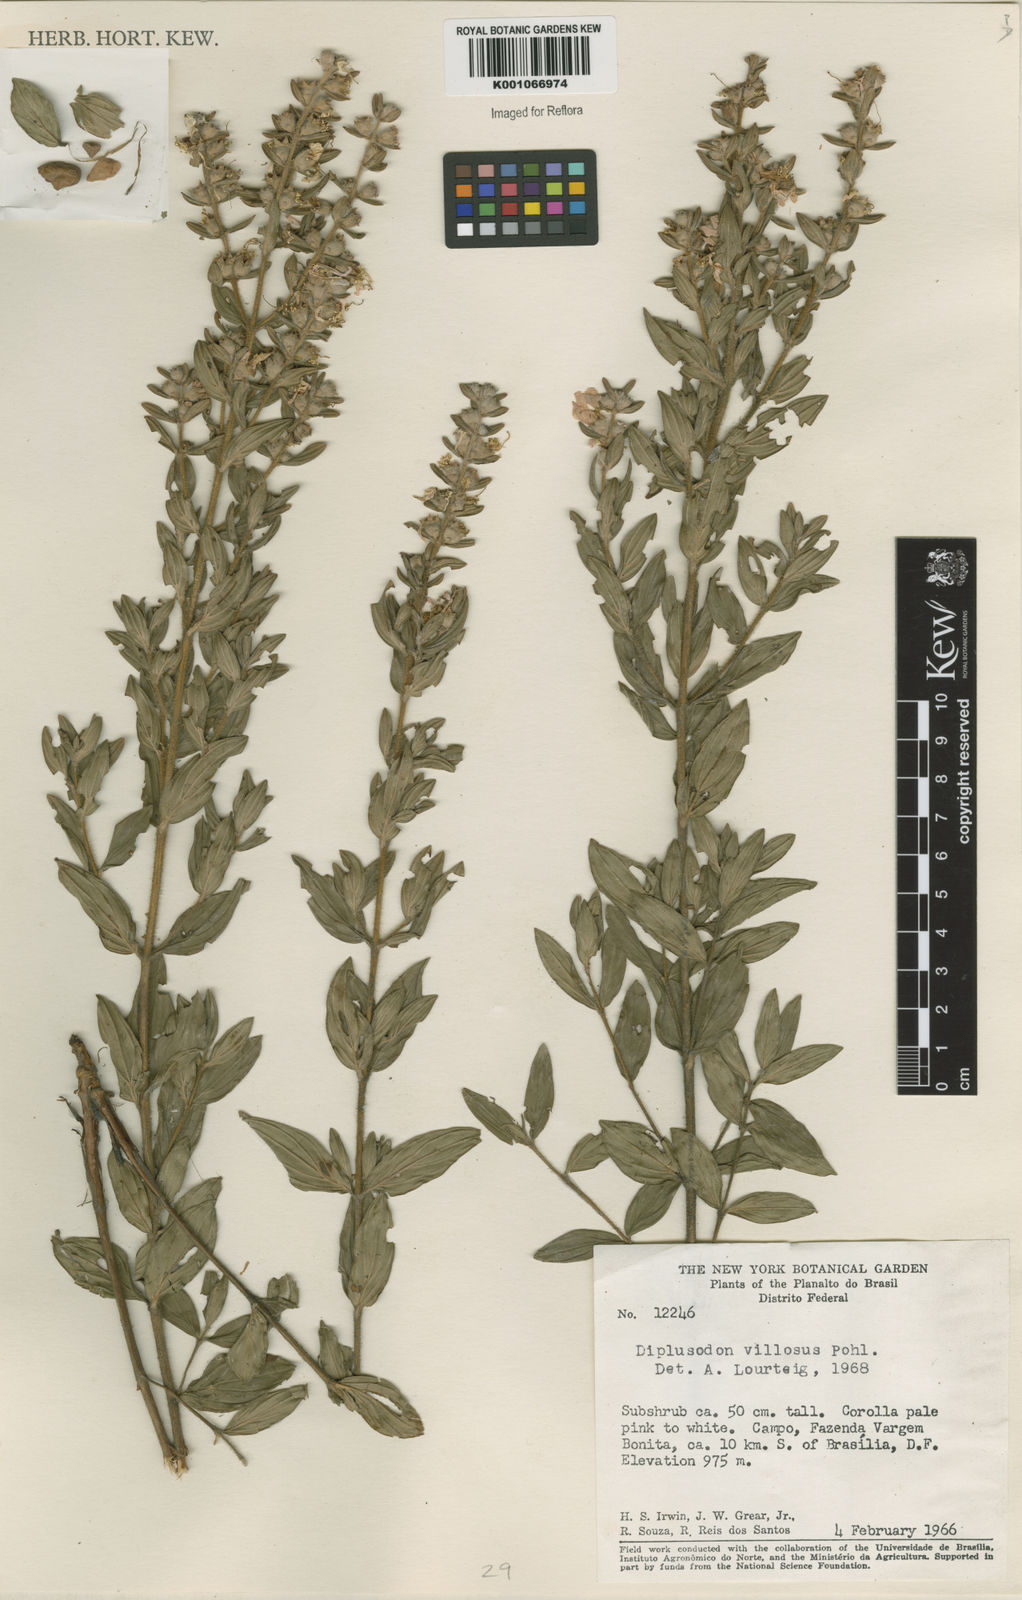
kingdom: Plantae
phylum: Tracheophyta
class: Magnoliopsida
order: Myrtales
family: Lythraceae
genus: Diplusodon
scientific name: Diplusodon villosus
